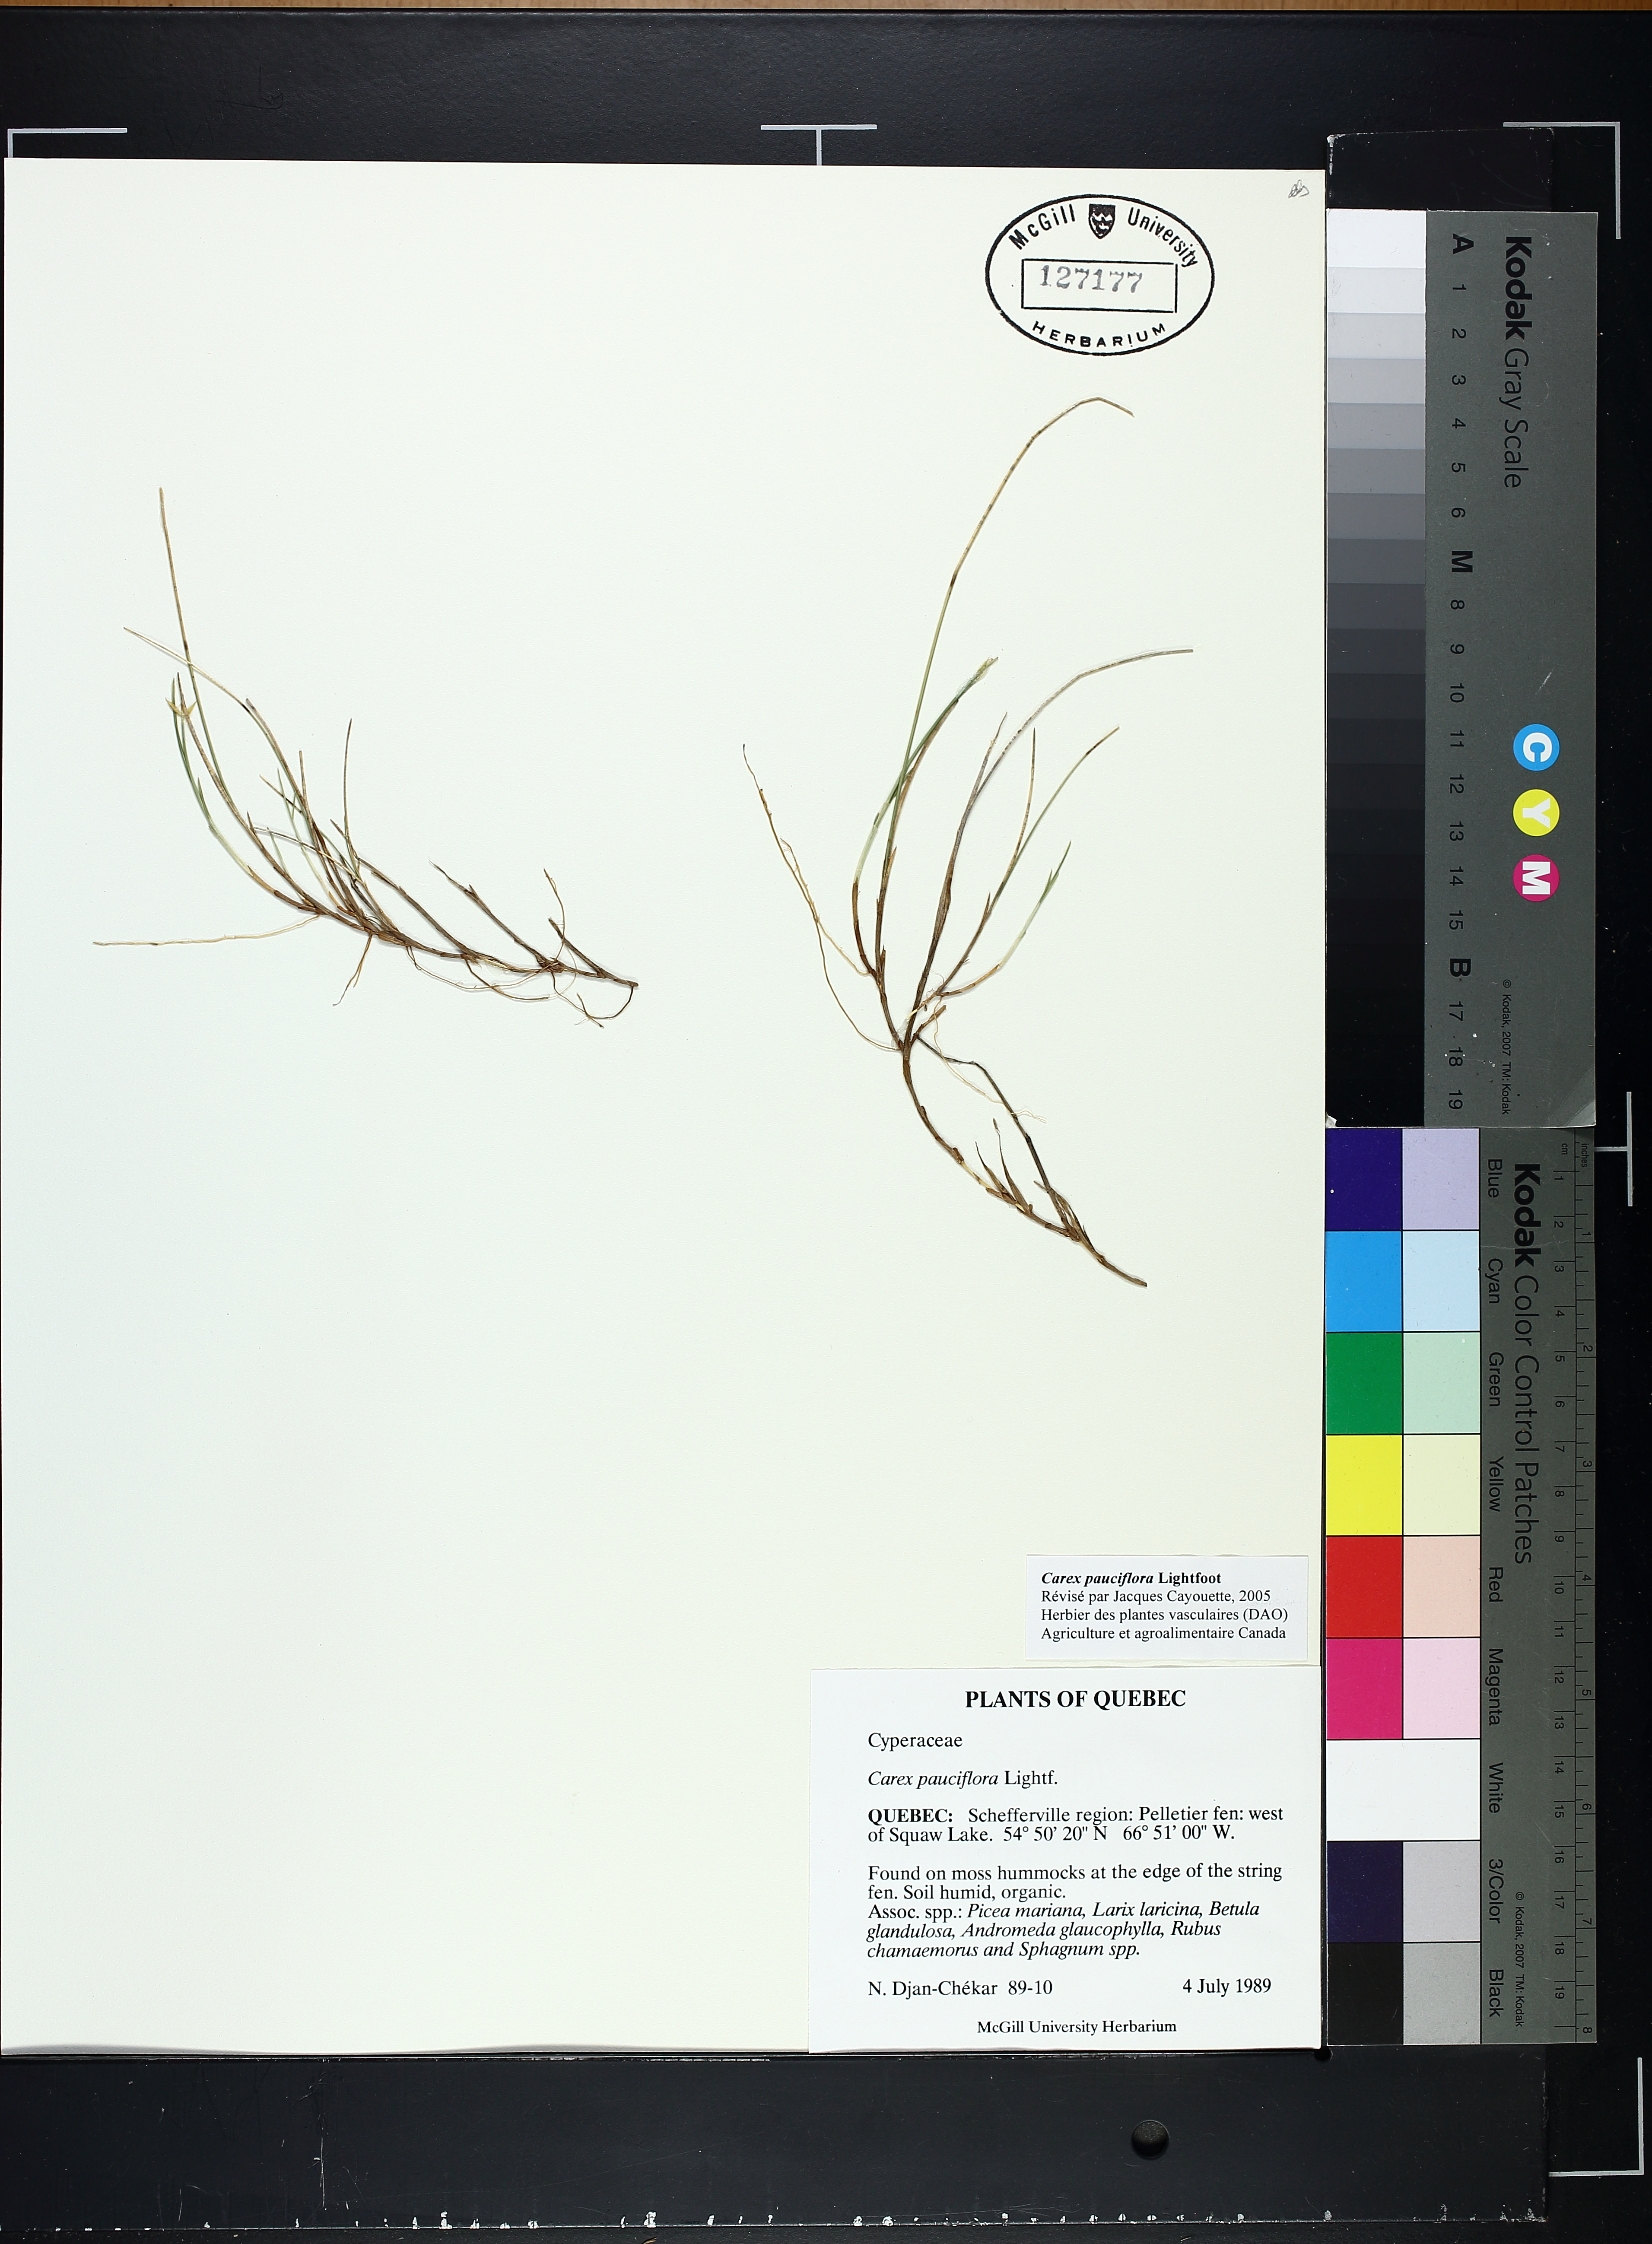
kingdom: Plantae
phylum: Tracheophyta
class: Liliopsida
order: Poales
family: Cyperaceae
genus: Carex
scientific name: Carex pauciflora
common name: Few-flowered sedge
